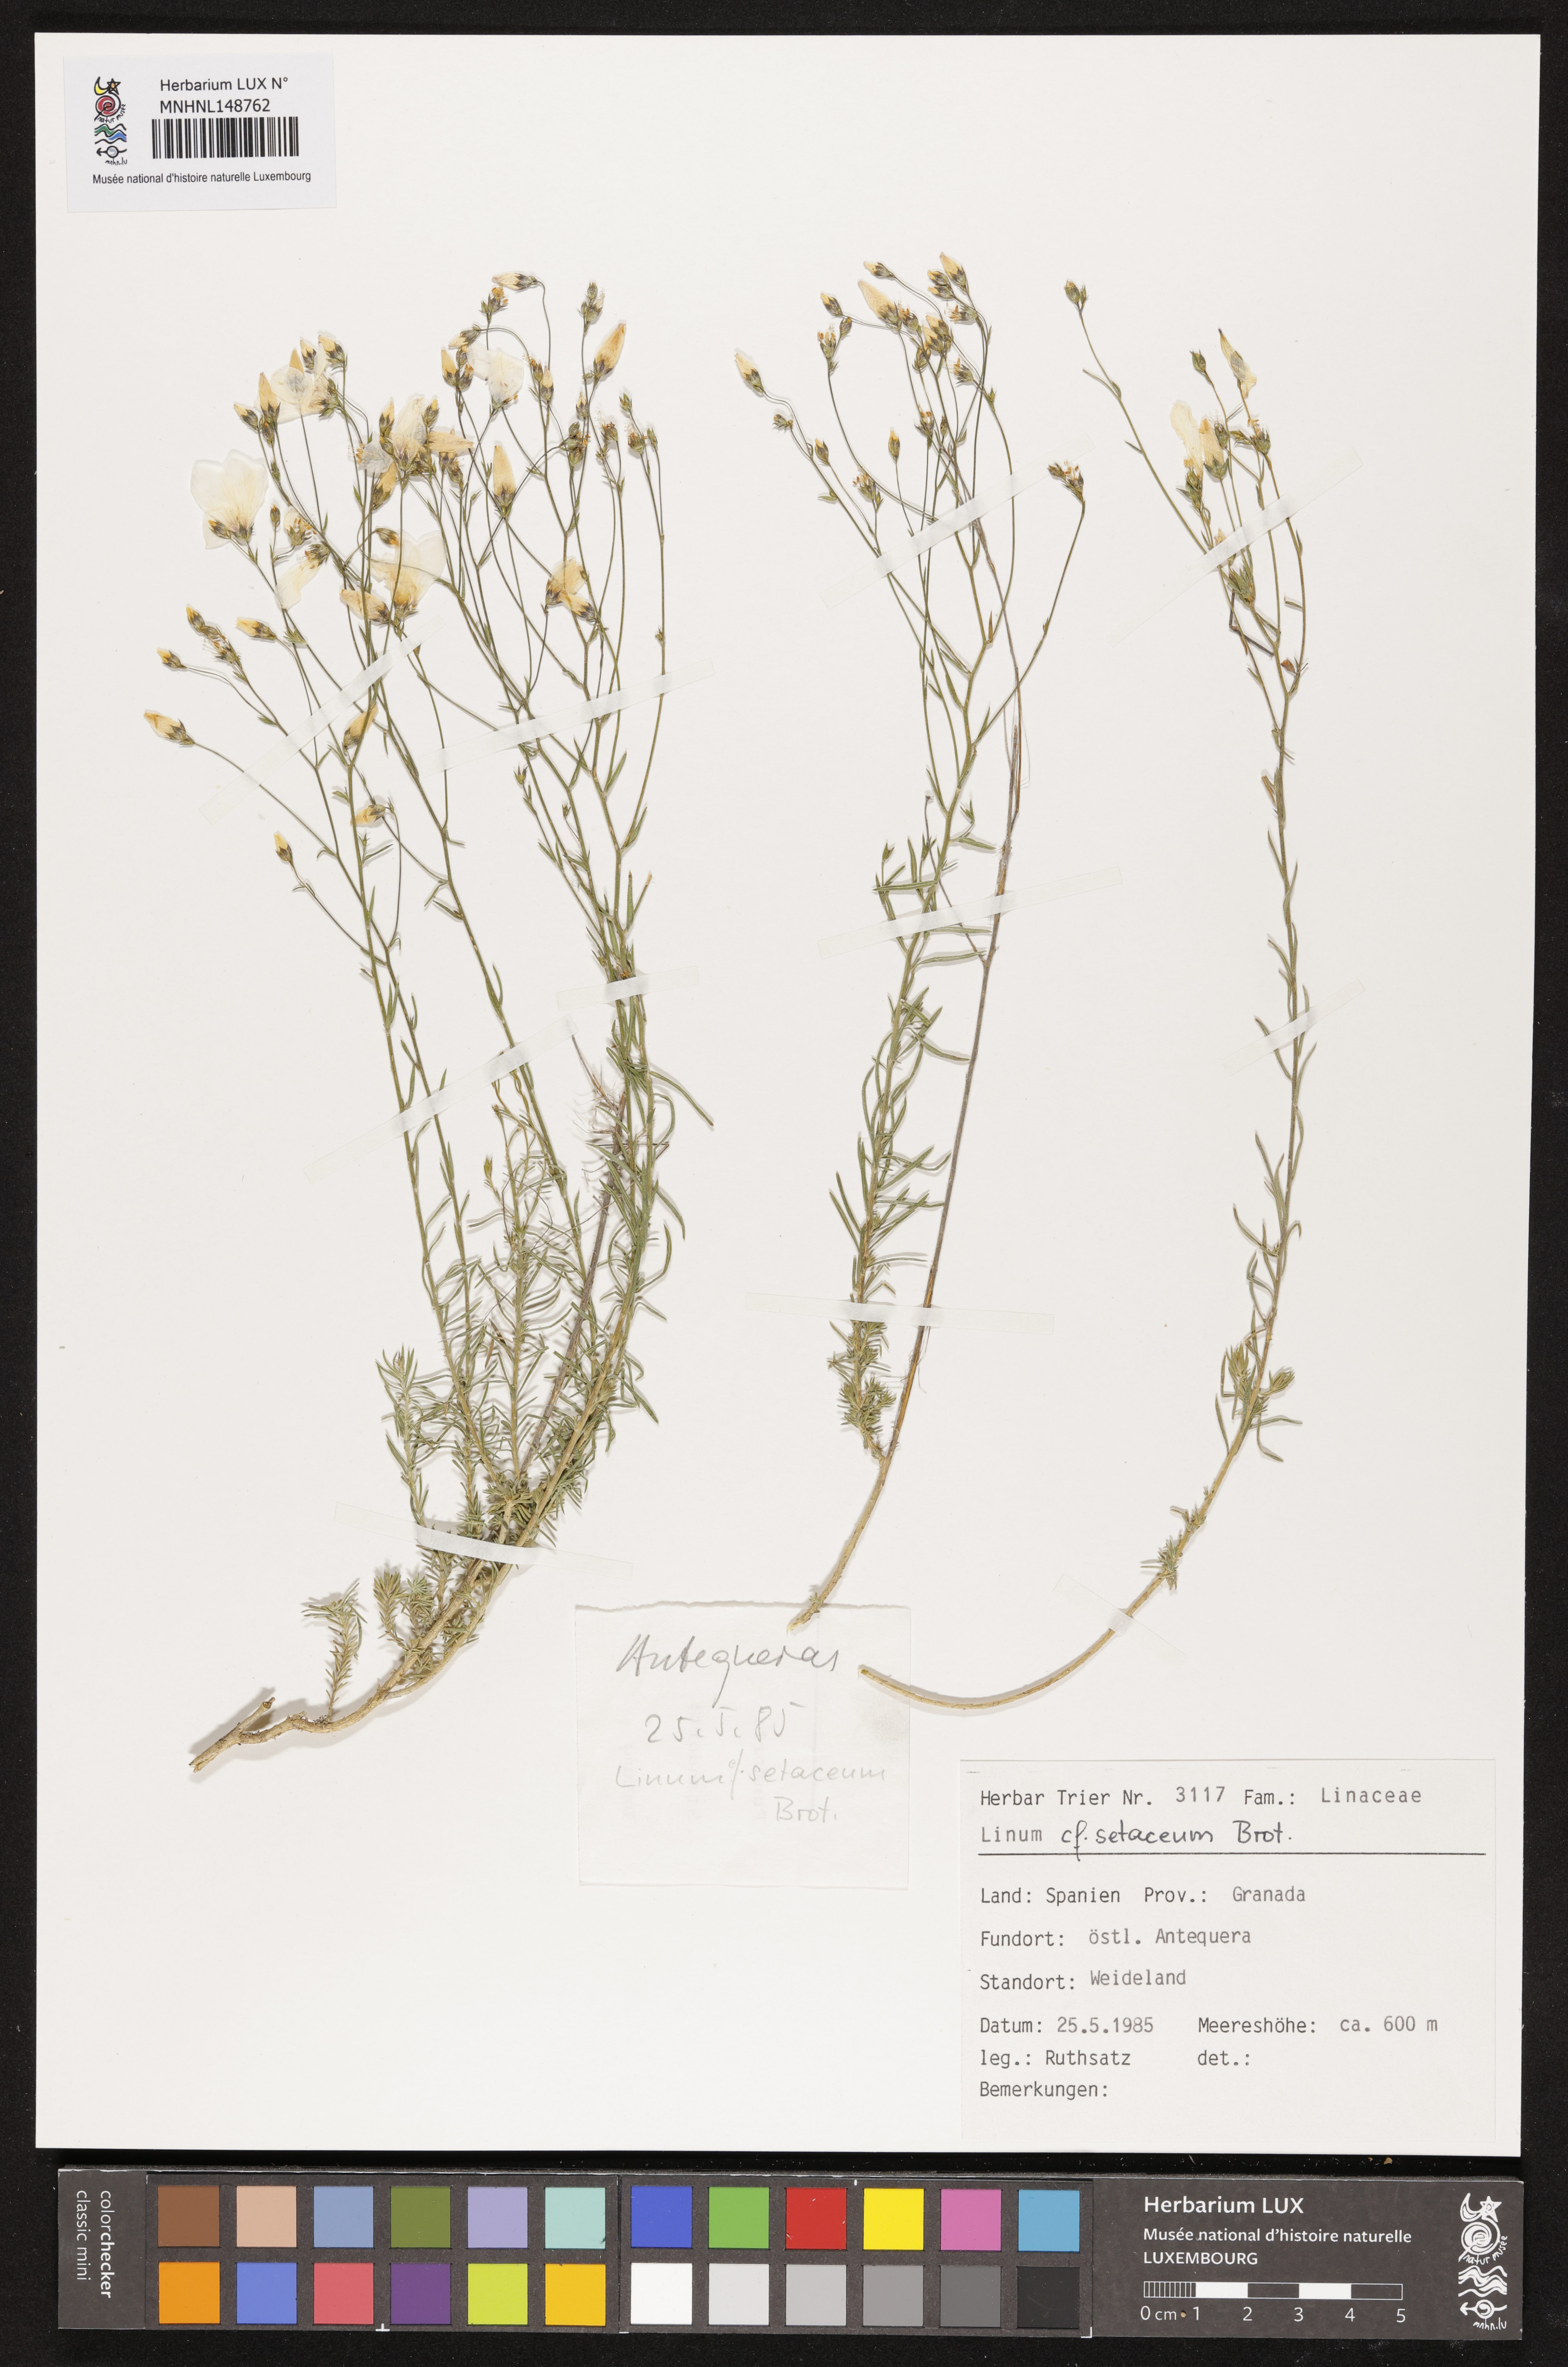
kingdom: Plantae
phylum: Tracheophyta
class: Magnoliopsida
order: Malpighiales
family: Linaceae
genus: Linum
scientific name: Linum setaceum
